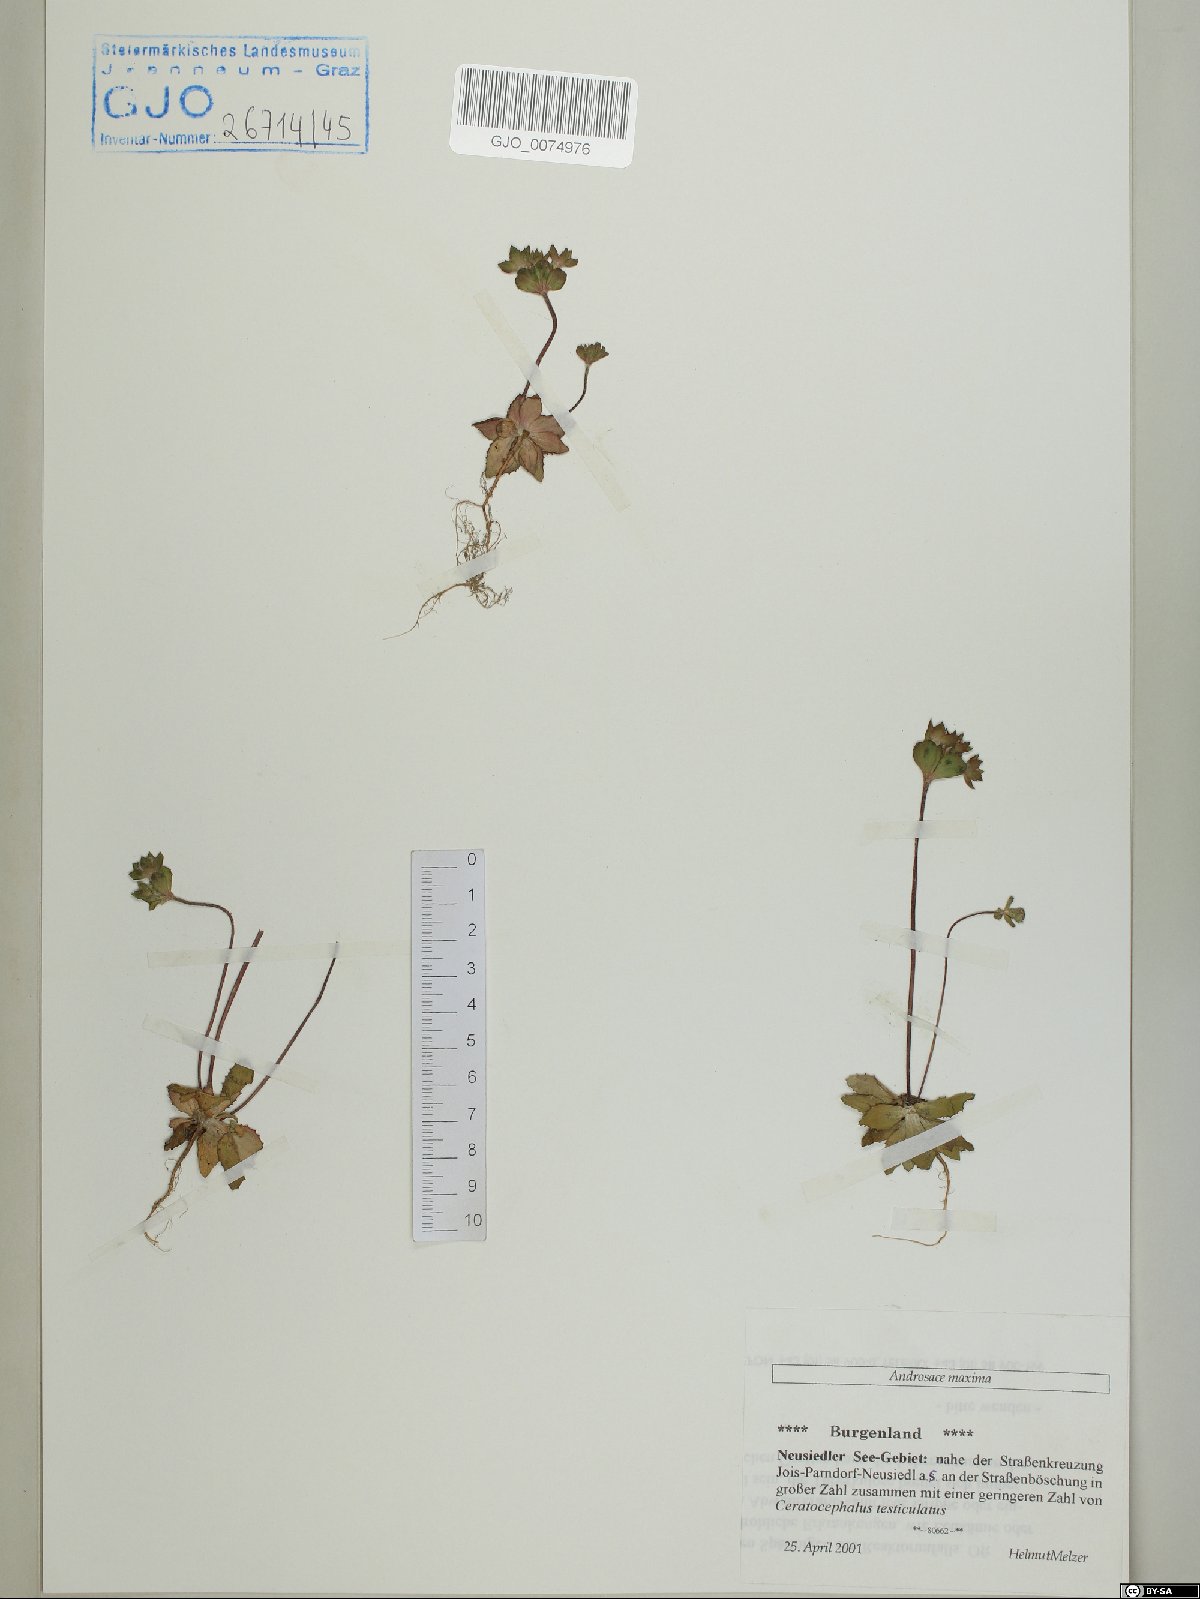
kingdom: Plantae
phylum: Tracheophyta
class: Magnoliopsida
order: Ericales
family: Primulaceae
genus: Androsace
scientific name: Androsace maxima
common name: Annual androsace
